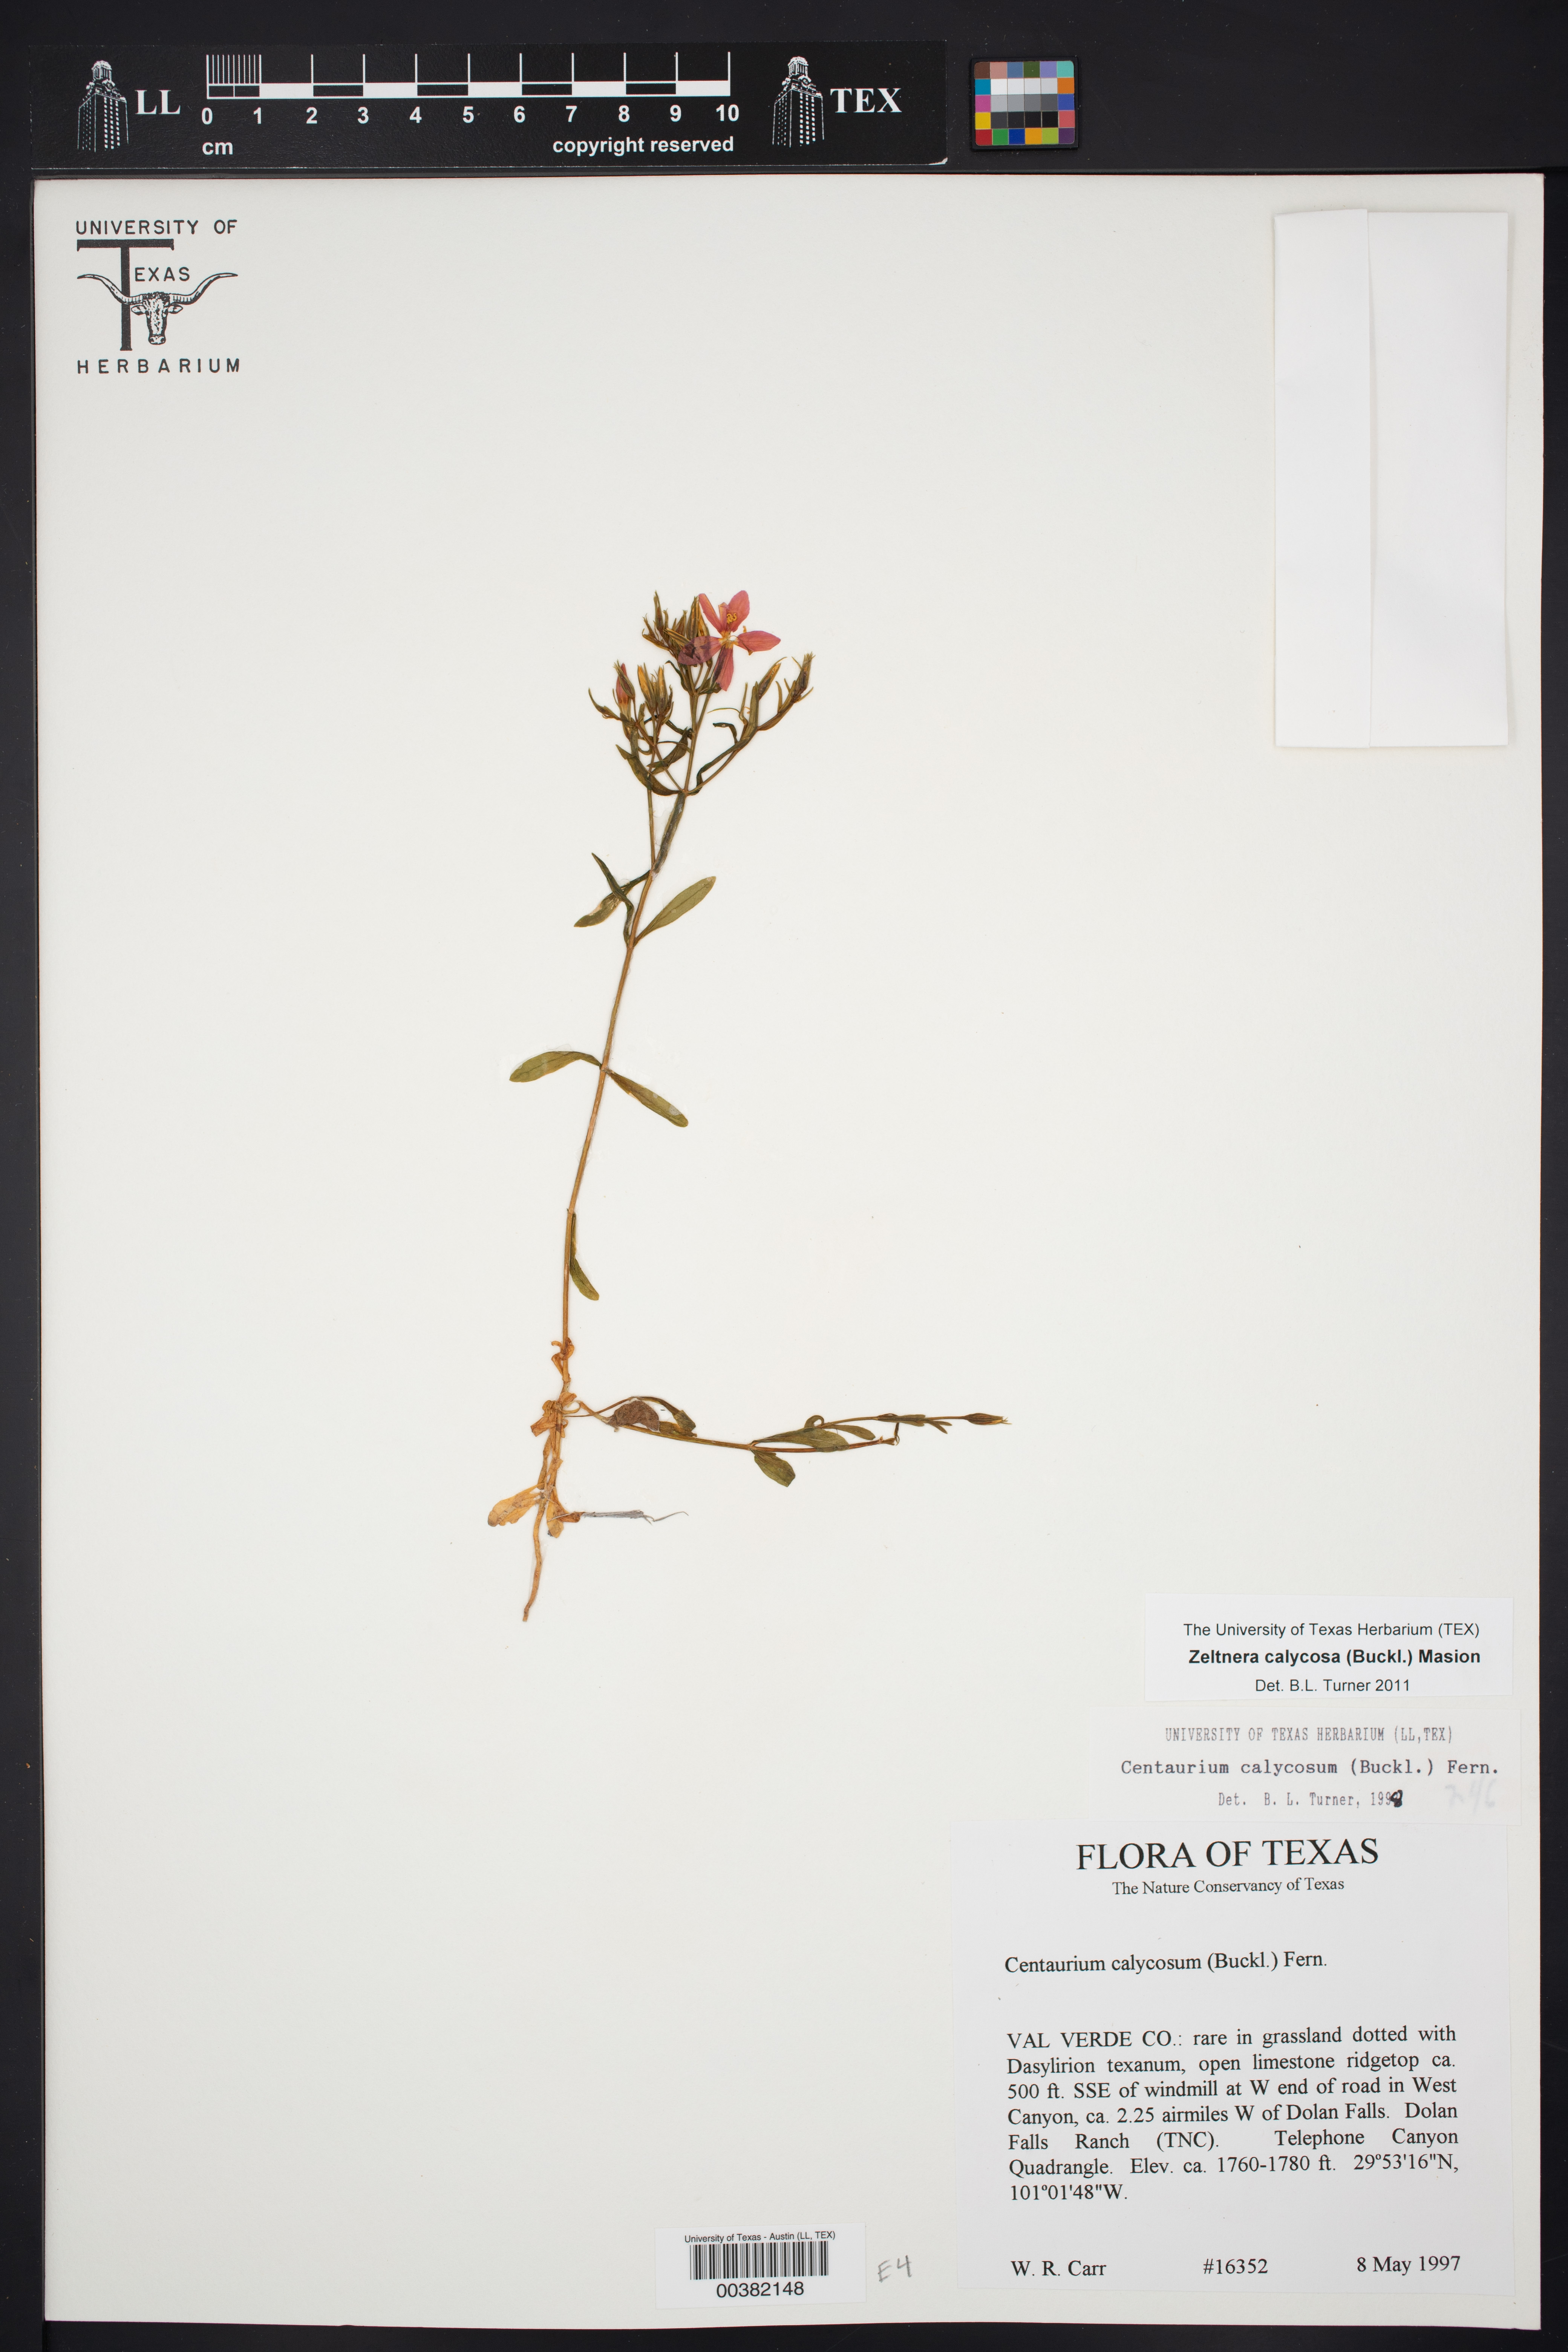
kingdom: Plantae
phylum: Tracheophyta
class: Magnoliopsida
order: Gentianales
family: Gentianaceae
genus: Zeltnera
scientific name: Zeltnera calycosa
